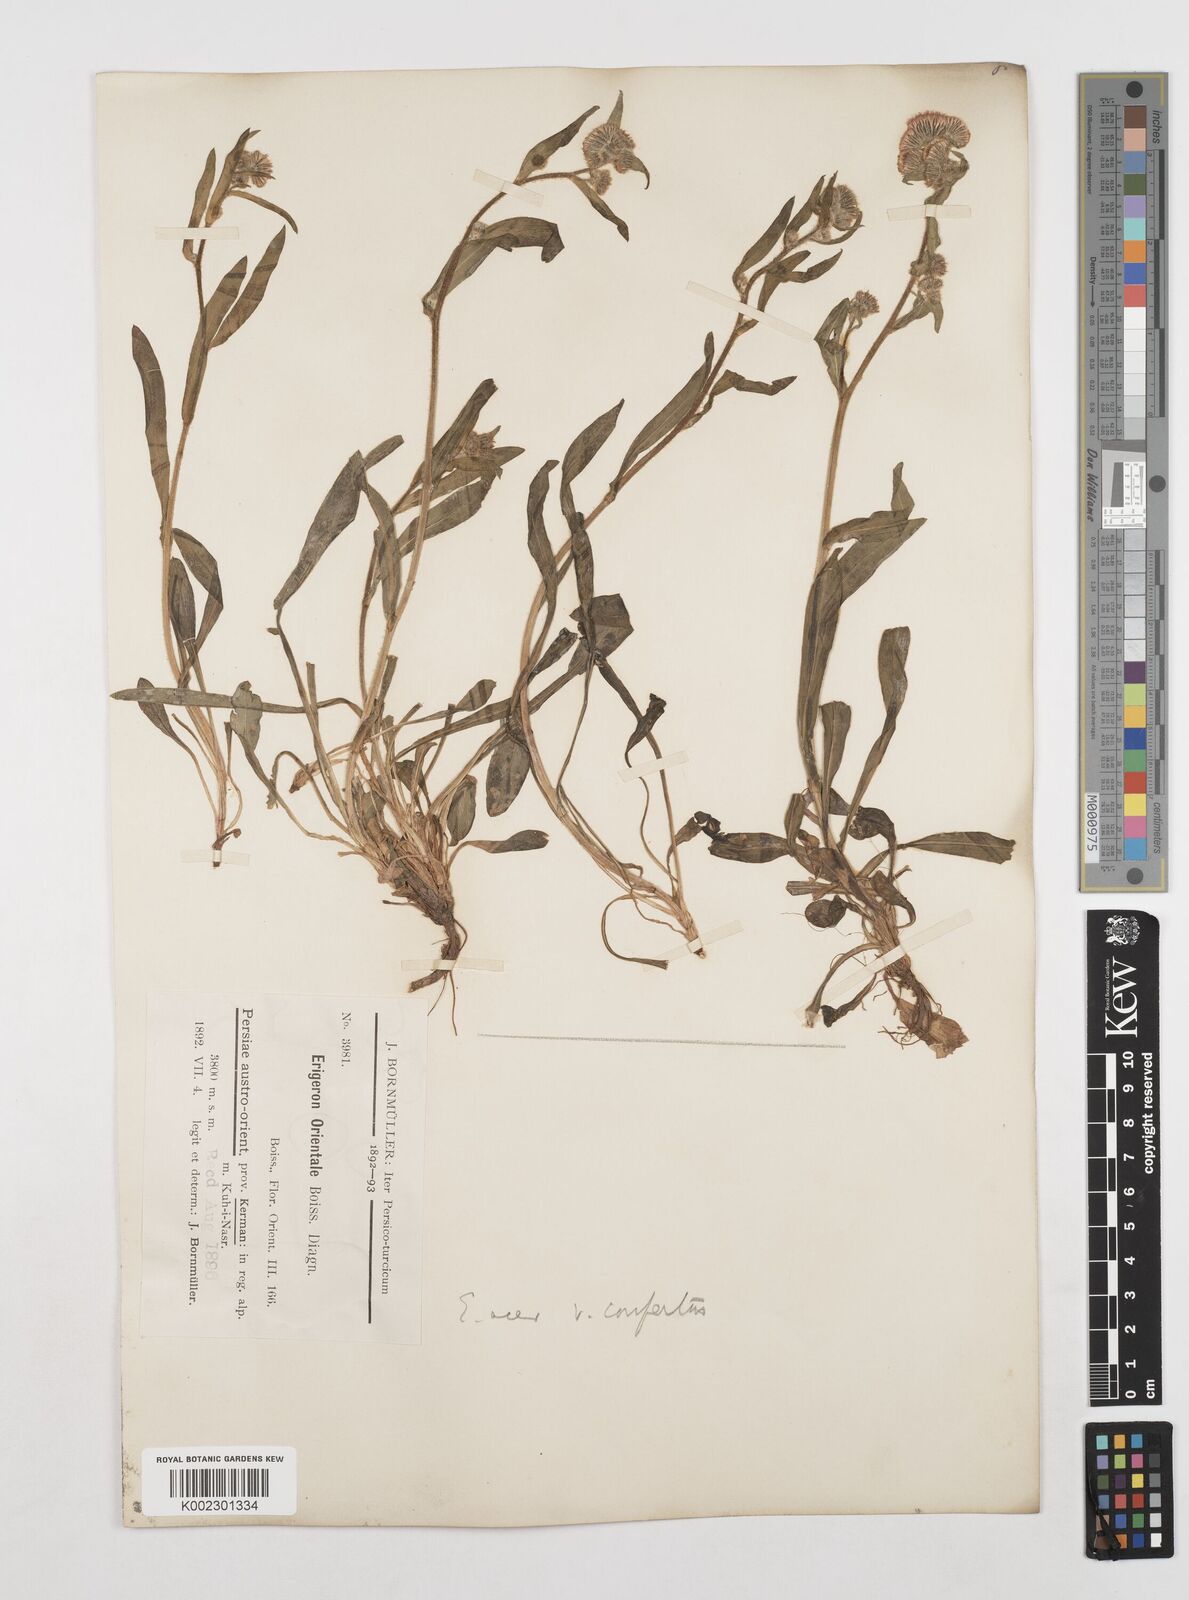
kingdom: Plantae
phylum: Tracheophyta
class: Magnoliopsida
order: Asterales
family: Asteraceae
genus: Erigeron
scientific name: Erigeron acris
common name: Blue fleabane
